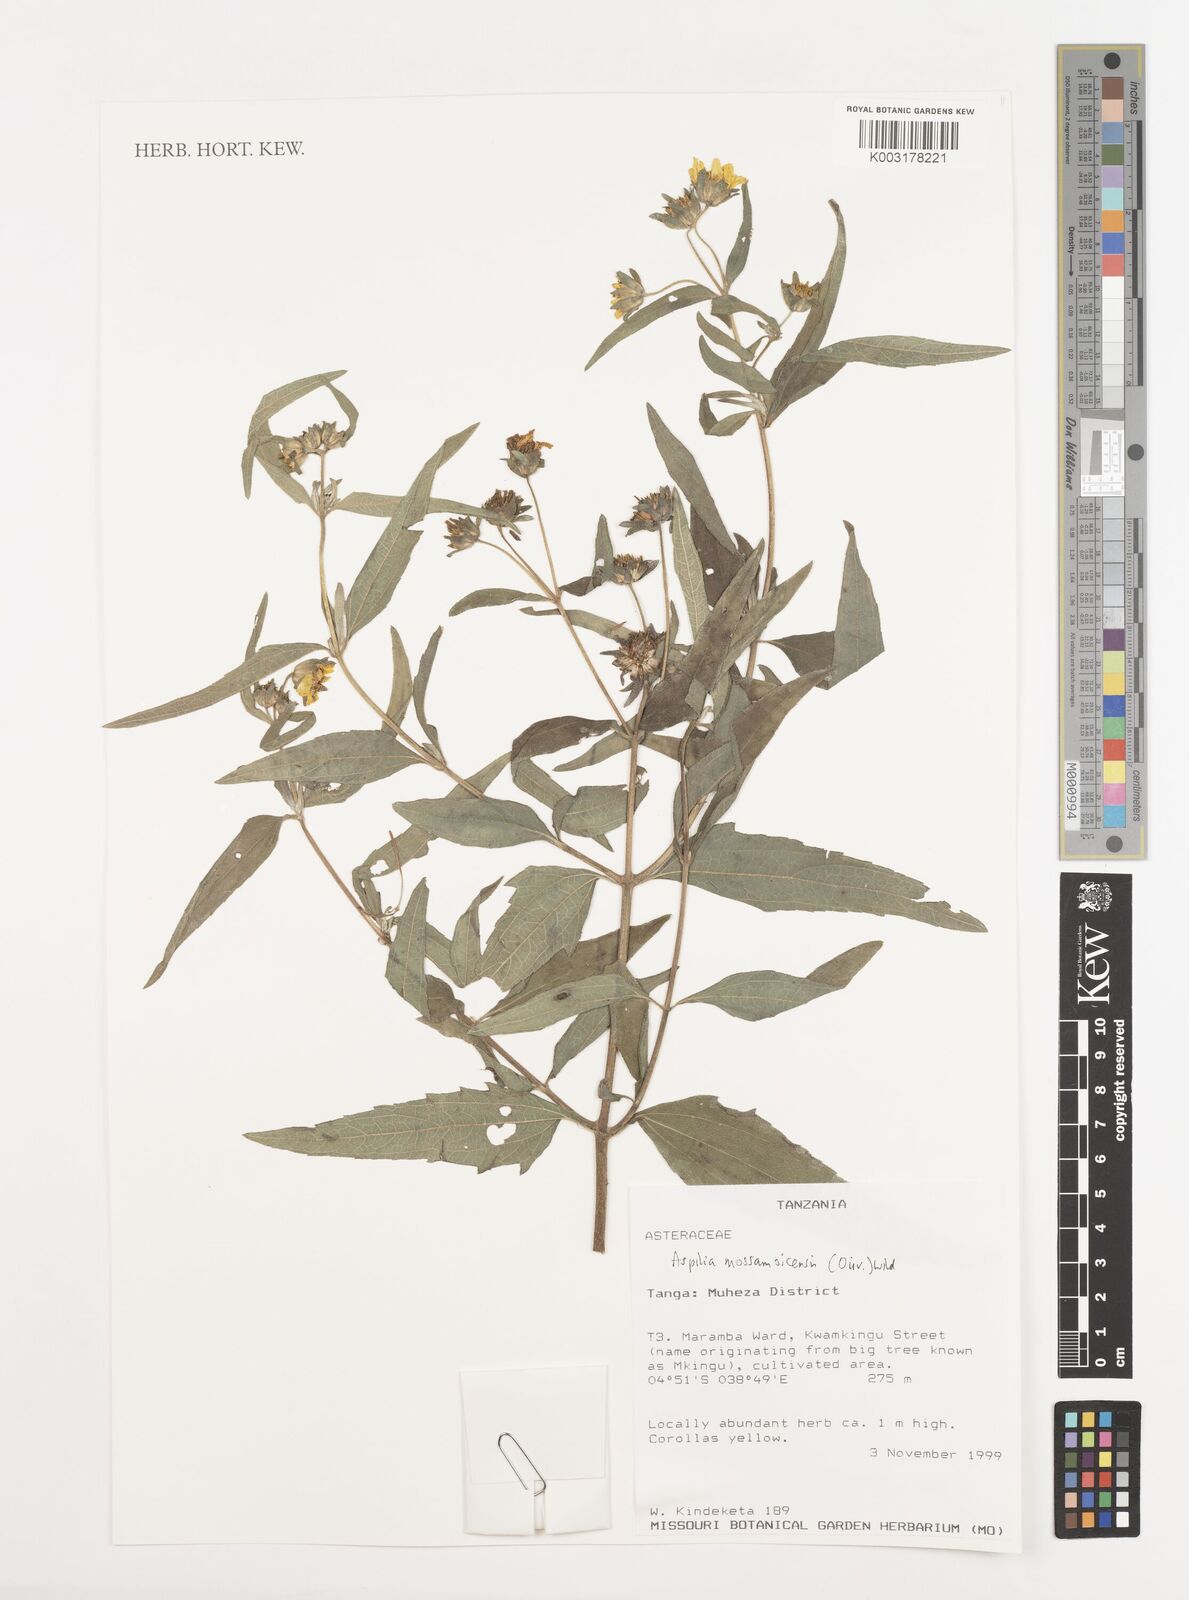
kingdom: Plantae
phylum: Tracheophyta
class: Magnoliopsida
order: Asterales
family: Asteraceae
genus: Aspilia
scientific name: Aspilia mossambicensis
